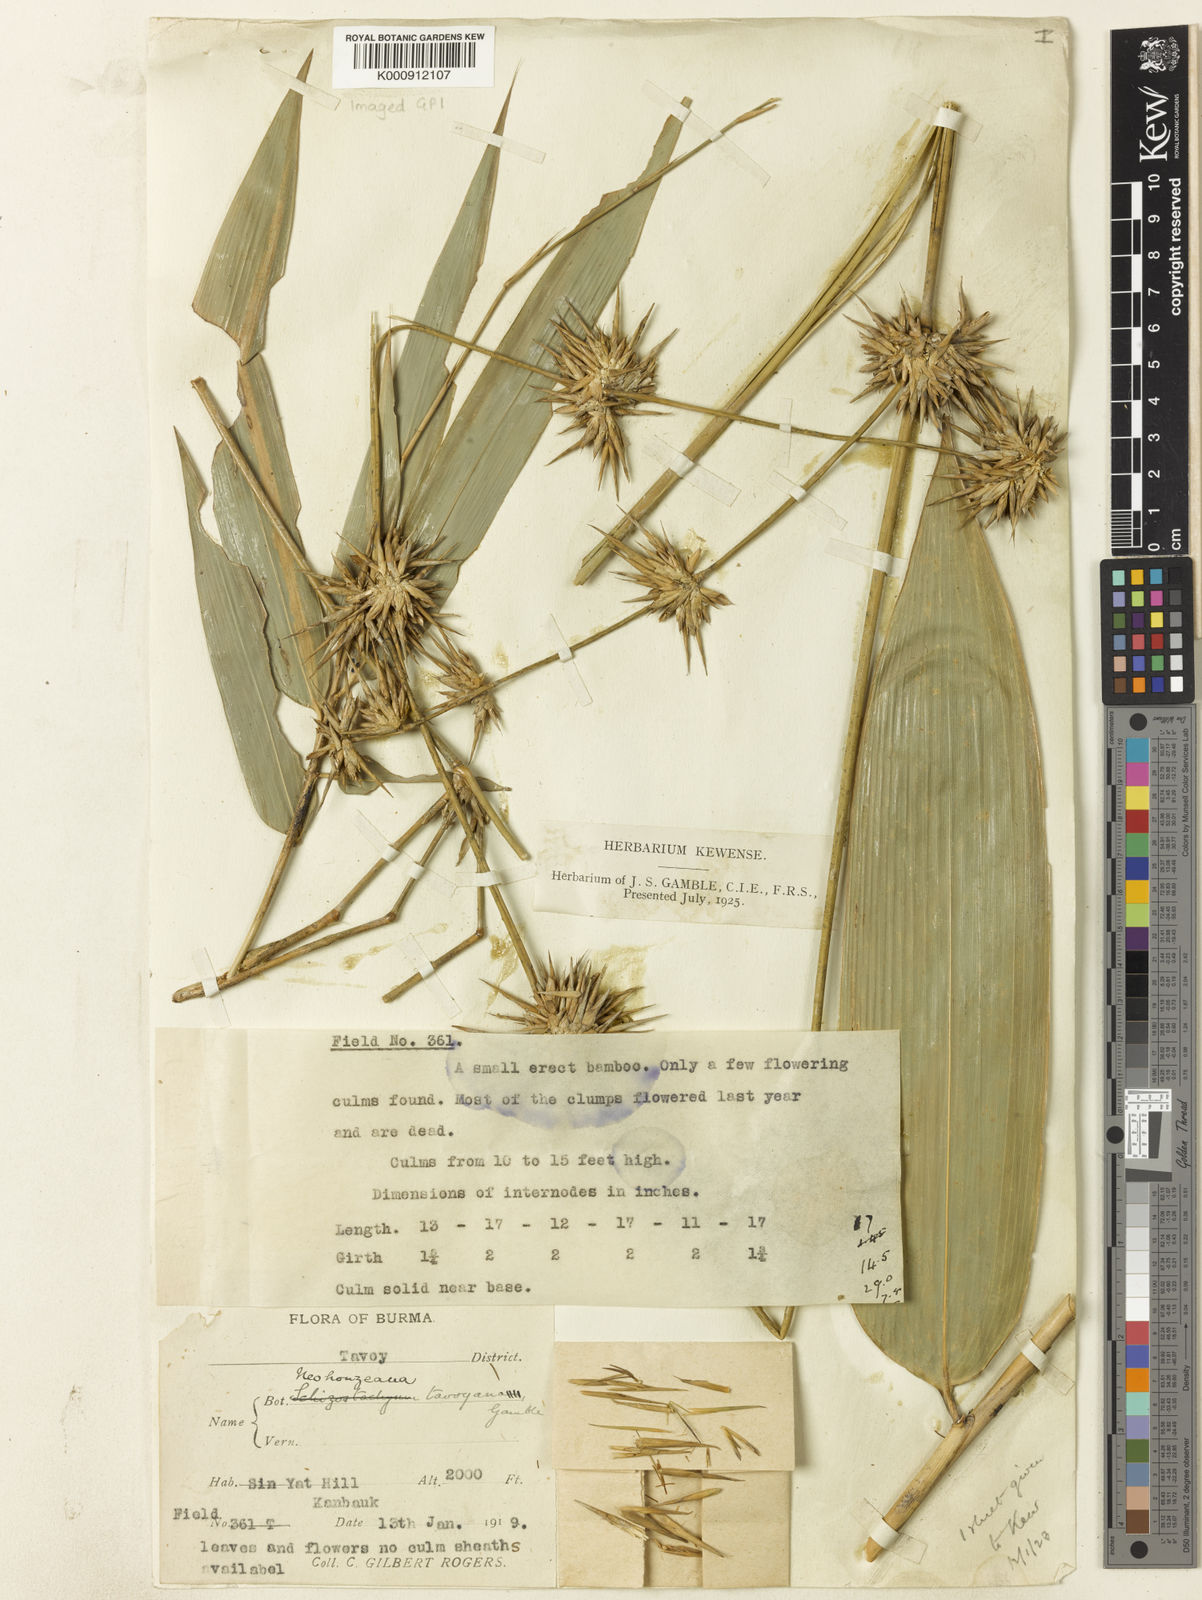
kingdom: Plantae
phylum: Tracheophyta
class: Liliopsida
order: Poales
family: Poaceae
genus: Schizostachyum
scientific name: Schizostachyum tavoyanum
